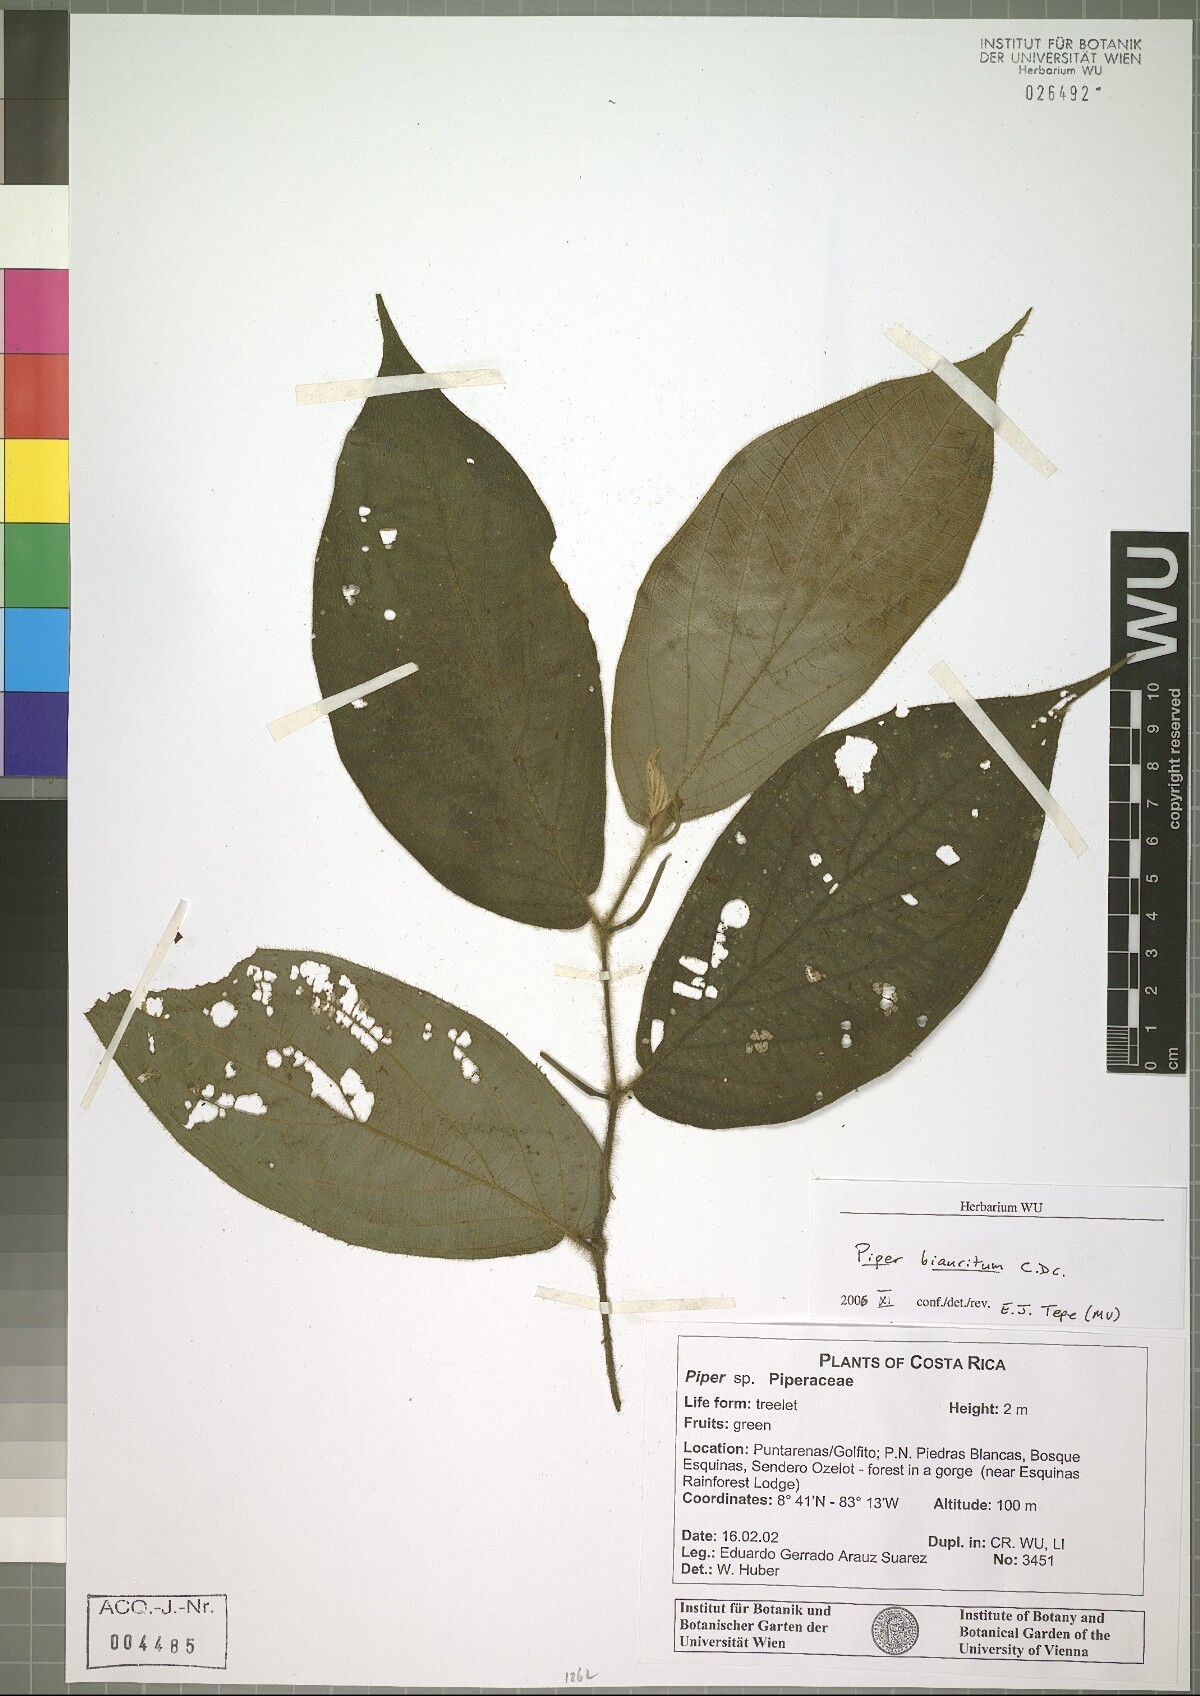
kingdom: Plantae
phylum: Tracheophyta
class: Magnoliopsida
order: Piperales
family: Piperaceae
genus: Piper
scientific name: Piper biauritum
